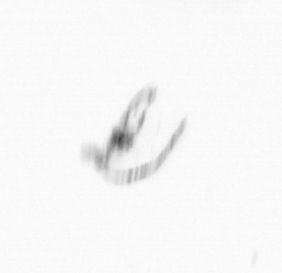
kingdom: Chromista
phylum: Ochrophyta
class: Bacillariophyceae
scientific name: Bacillariophyceae
